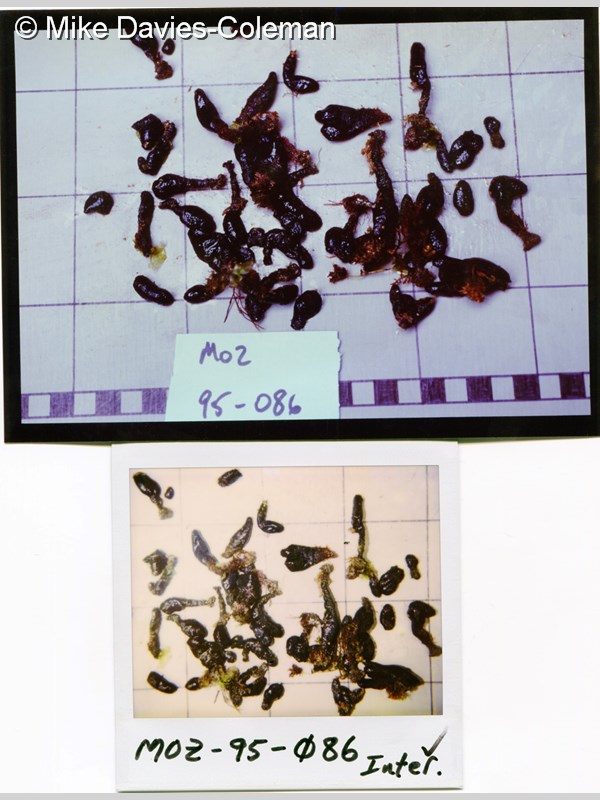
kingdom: Animalia
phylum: Chordata
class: Ascidiacea
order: Aplousobranchia
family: Polycitoridae
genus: Eudistoma
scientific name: Eudistoma caeruleum
